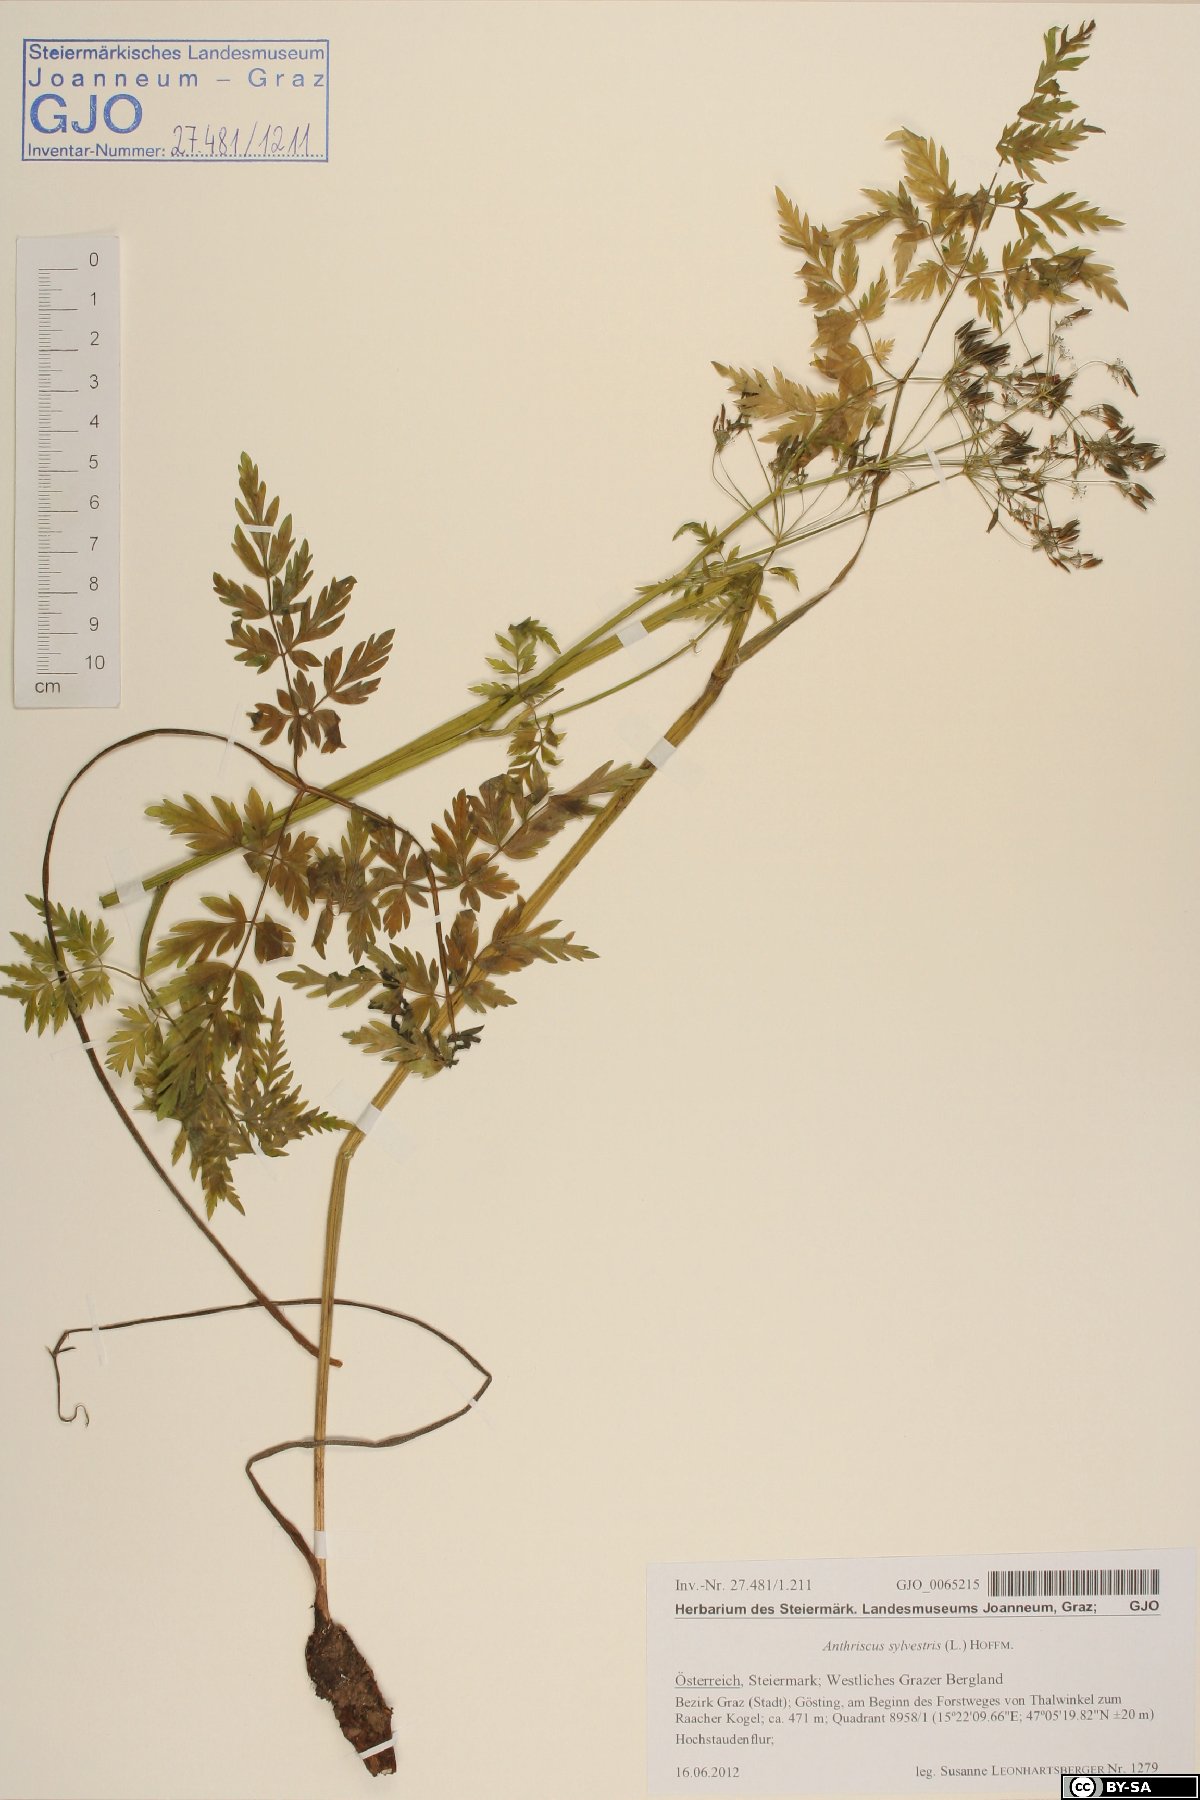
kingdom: Plantae
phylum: Tracheophyta
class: Magnoliopsida
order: Apiales
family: Apiaceae
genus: Anthriscus
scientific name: Anthriscus sylvestris
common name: Cow parsley
